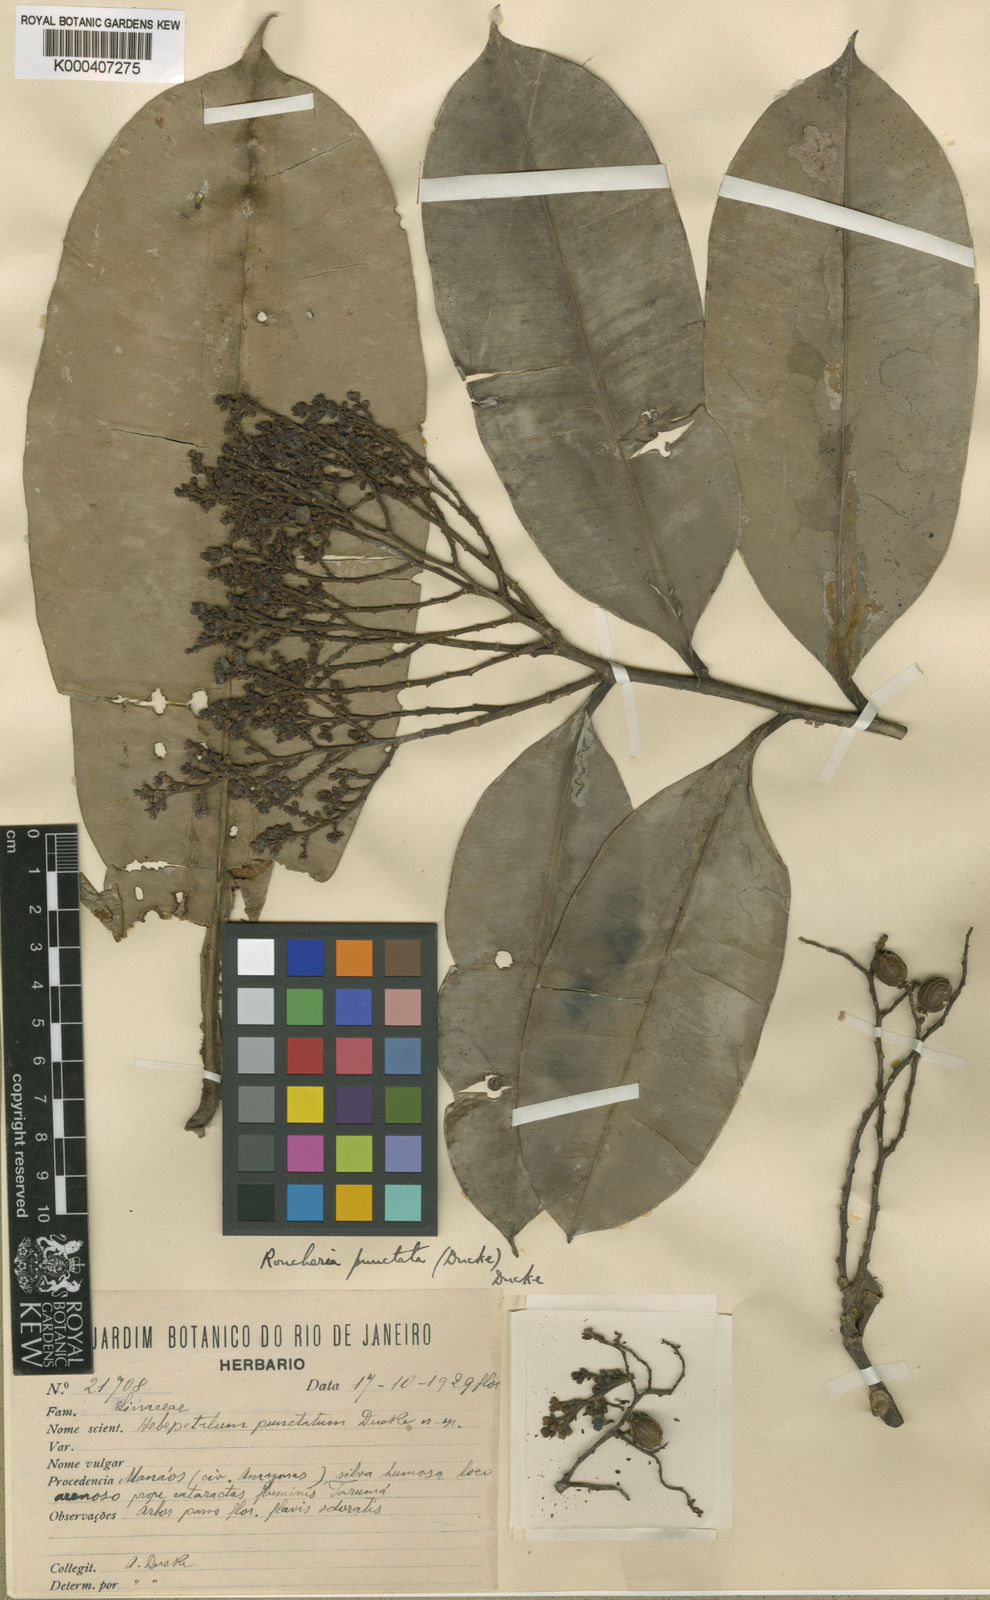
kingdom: Plantae
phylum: Tracheophyta
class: Magnoliopsida
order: Malpighiales
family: Linaceae
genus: Roucheria
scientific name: Roucheria columbiana
